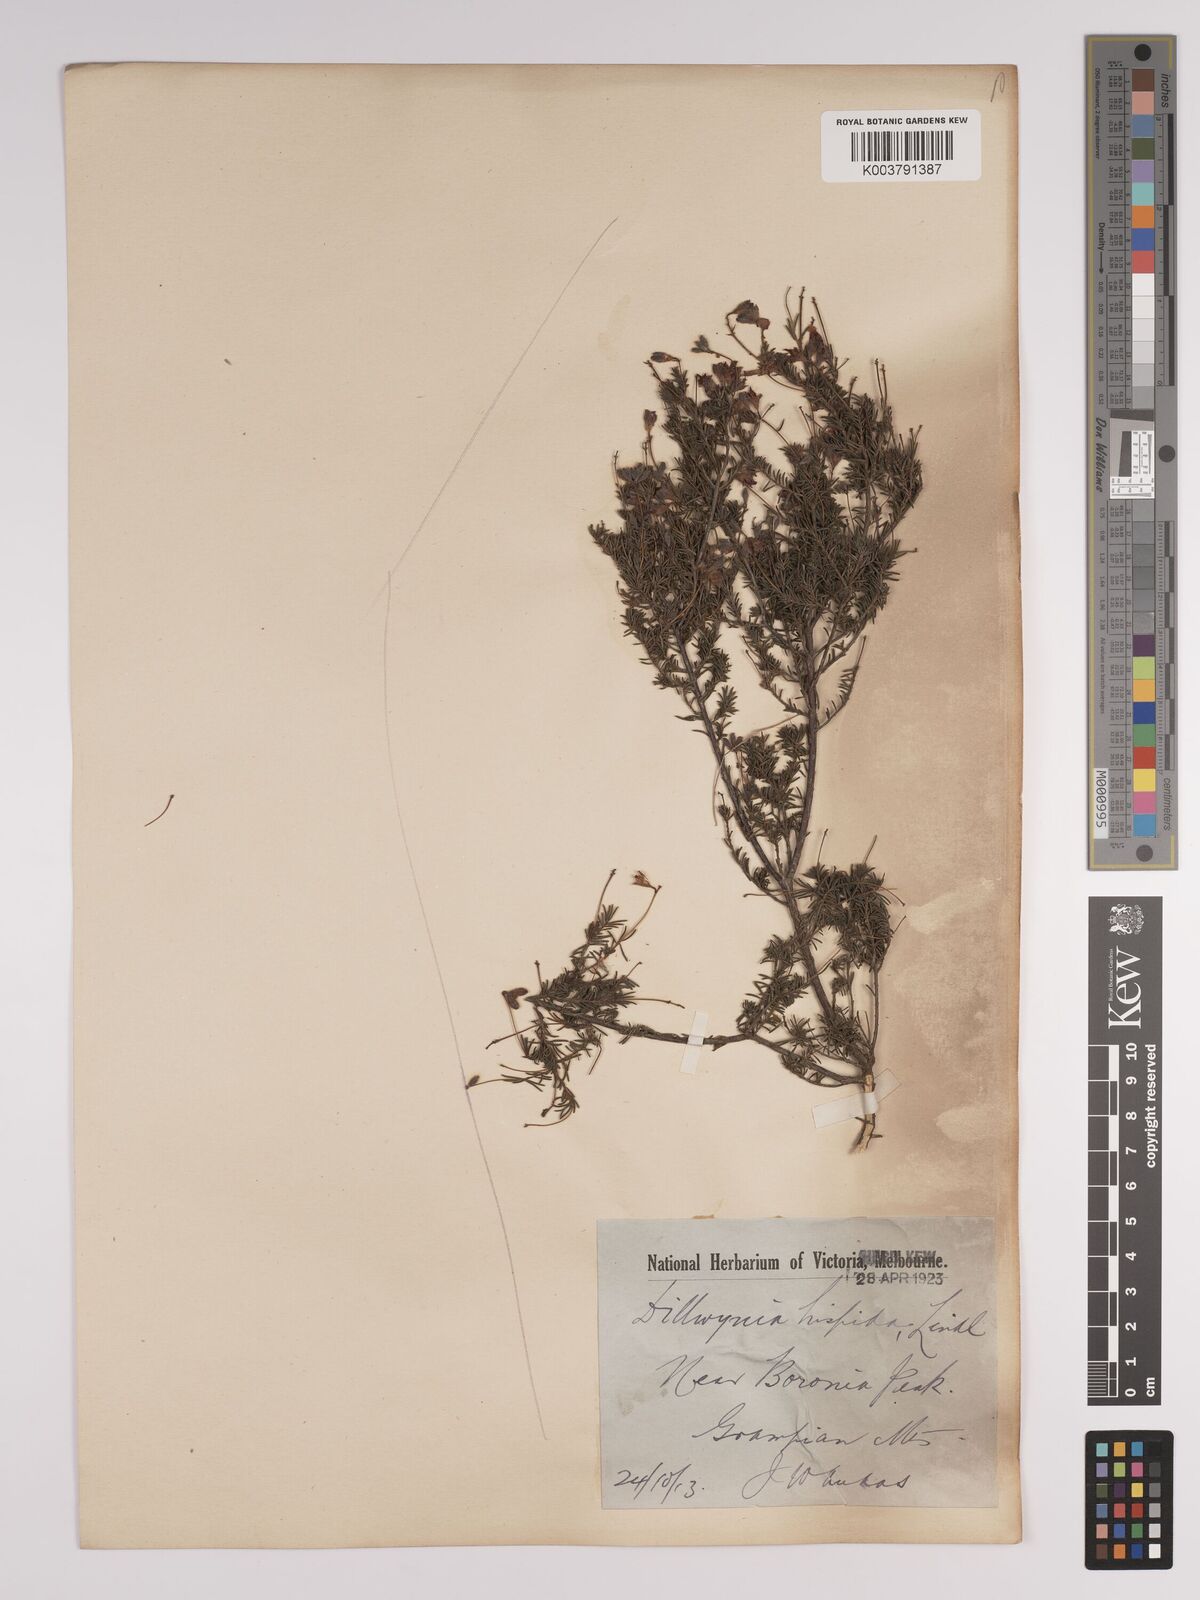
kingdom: Plantae
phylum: Tracheophyta
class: Magnoliopsida
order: Fabales
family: Fabaceae
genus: Dillwynia
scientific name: Dillwynia hispida
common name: Red parrot-pea
